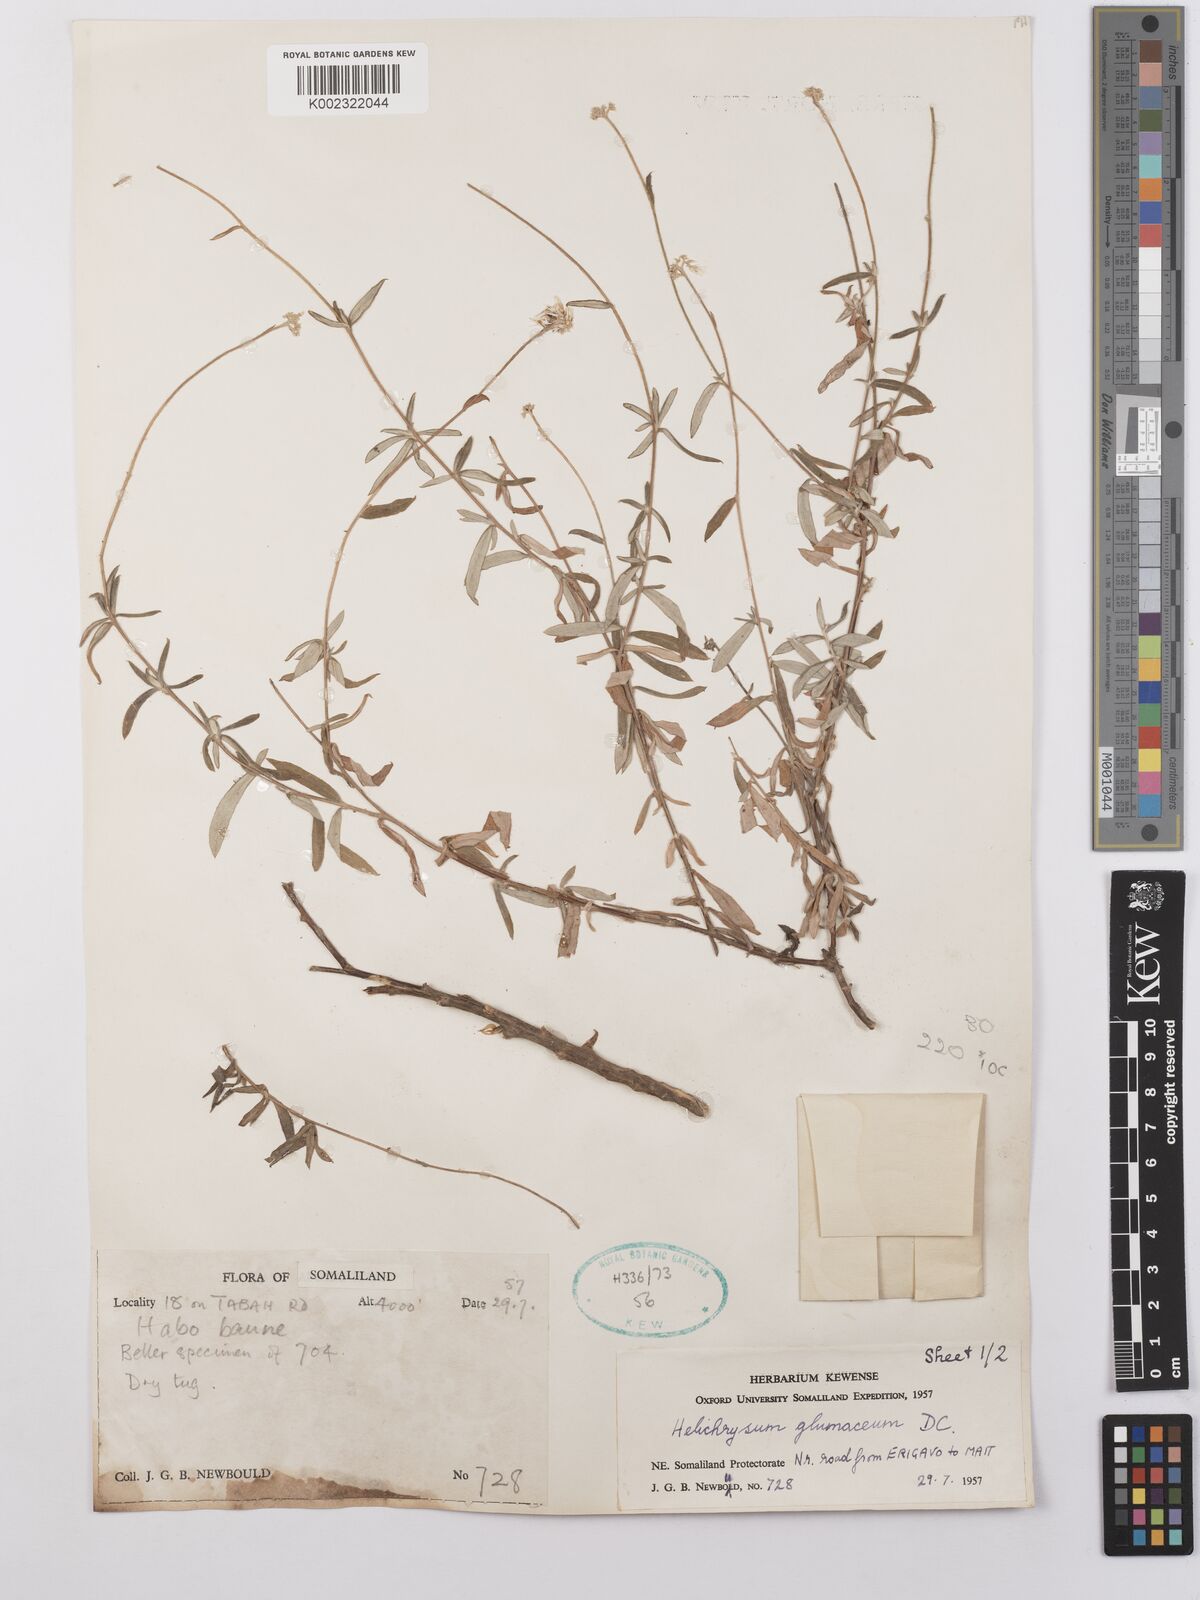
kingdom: Plantae
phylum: Tracheophyta
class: Magnoliopsida
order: Asterales
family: Asteraceae
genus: Helichrysum
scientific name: Helichrysum glumaceum
